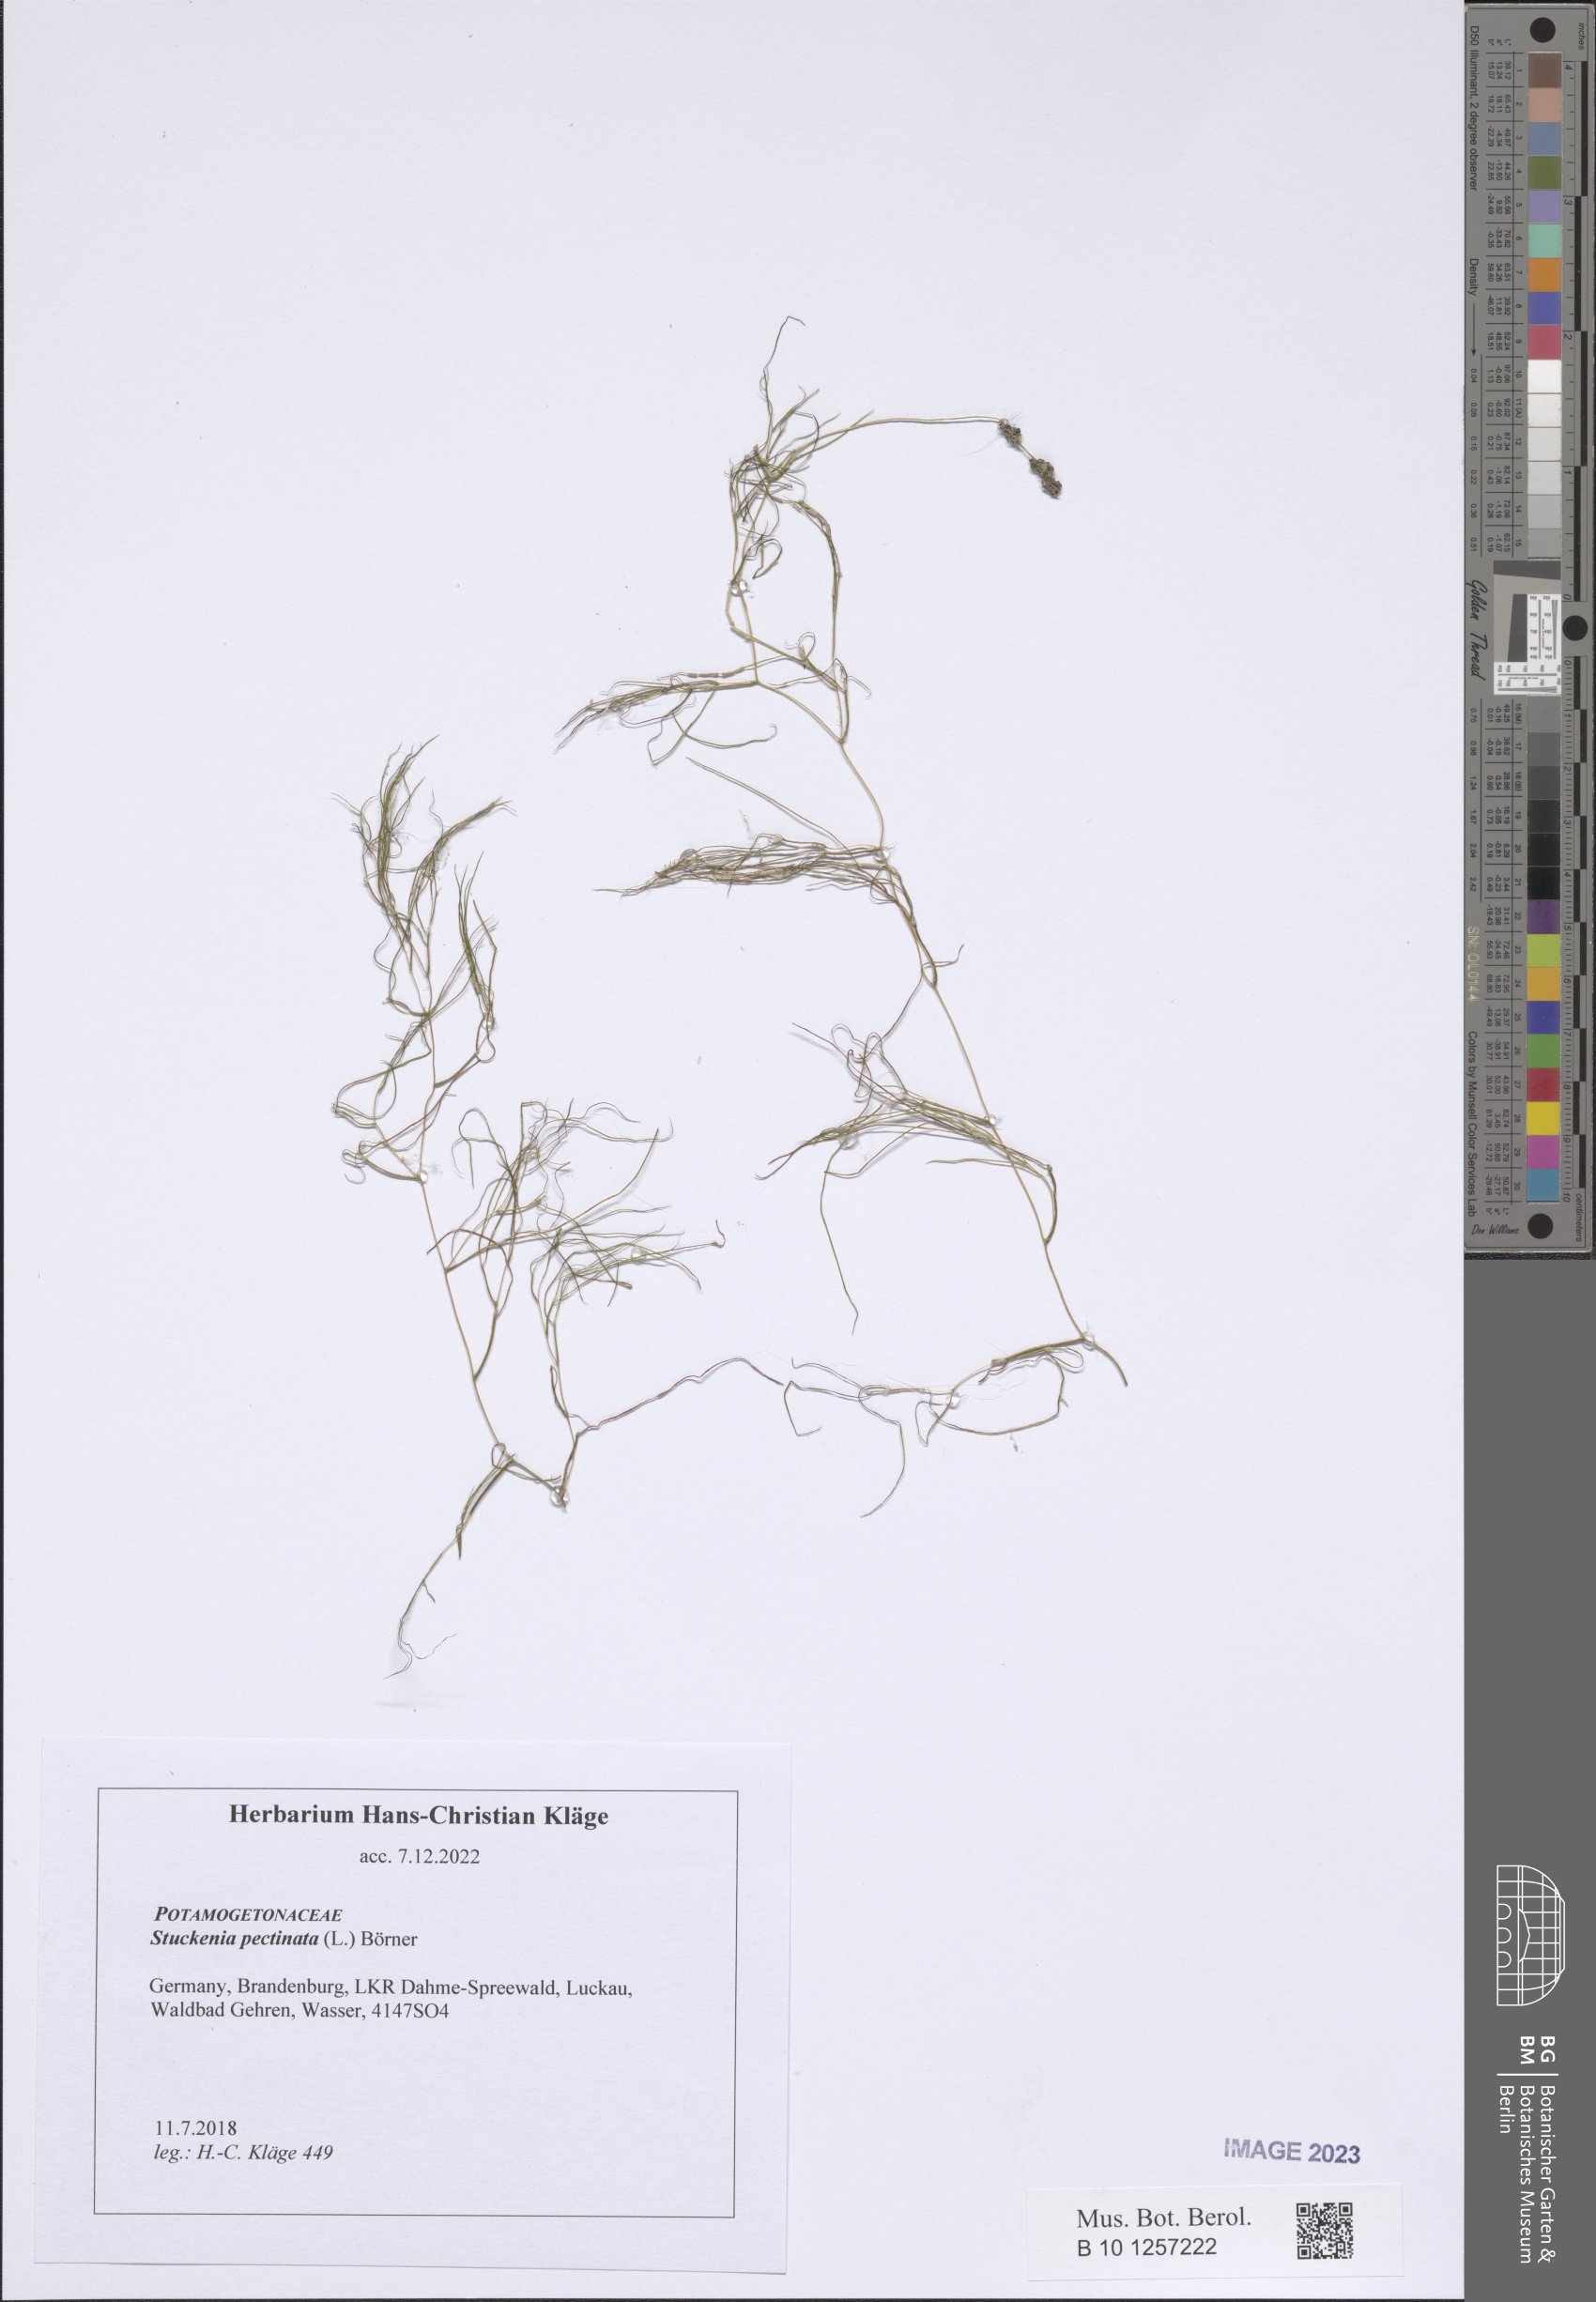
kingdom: Plantae
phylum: Tracheophyta
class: Liliopsida
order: Alismatales
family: Potamogetonaceae
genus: Stuckenia
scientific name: Stuckenia pectinata
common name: Sago pondweed
